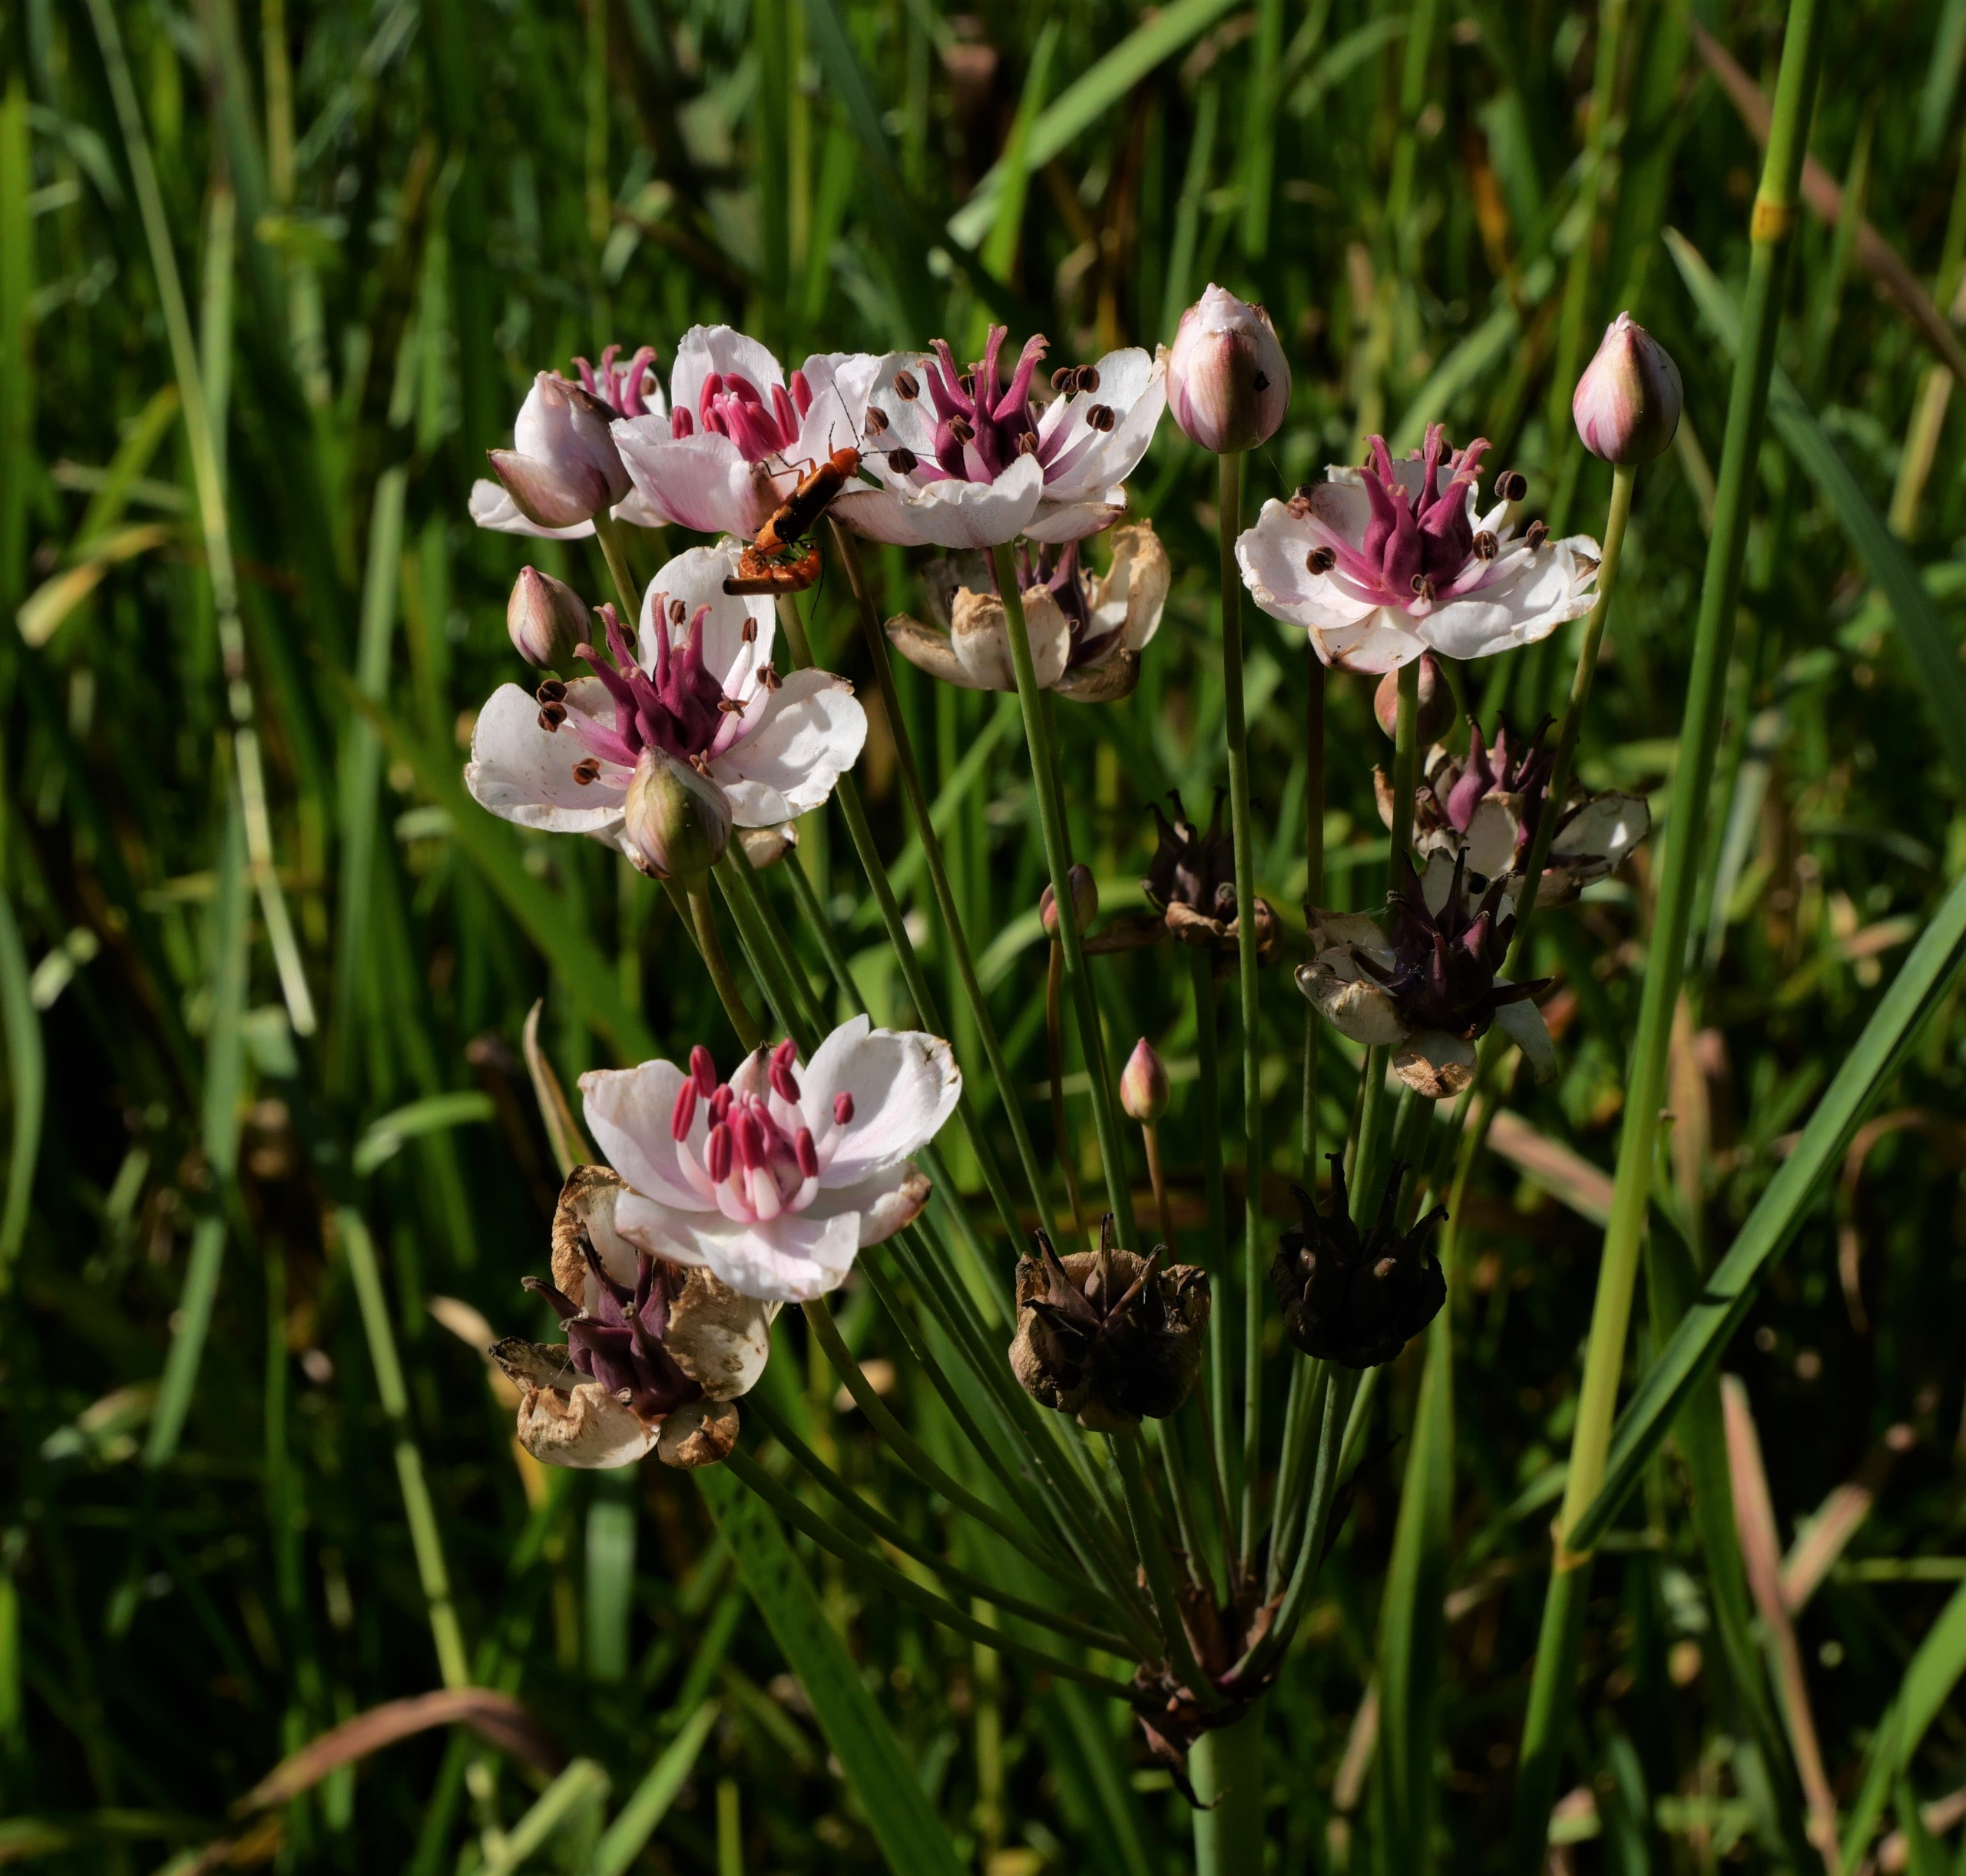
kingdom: Plantae
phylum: Tracheophyta
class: Liliopsida
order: Alismatales
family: Butomaceae
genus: Butomus
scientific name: Butomus umbellatus
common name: Brudelys
